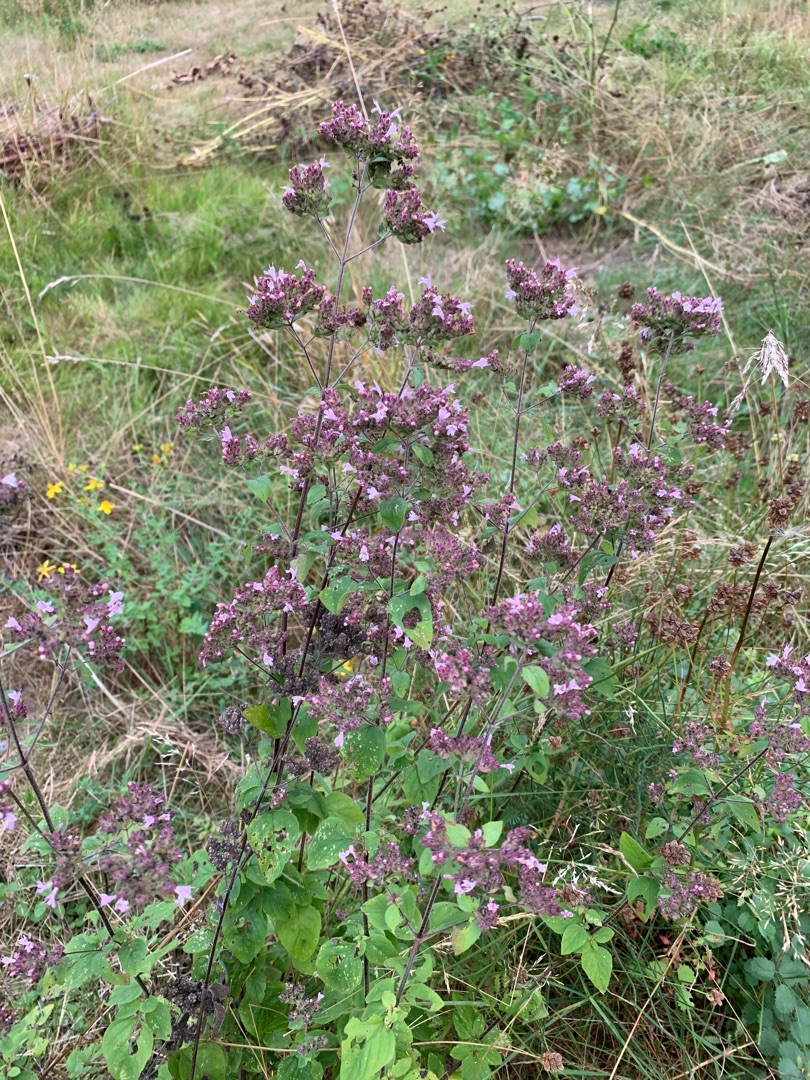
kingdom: Plantae
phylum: Tracheophyta
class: Magnoliopsida
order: Lamiales
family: Lamiaceae
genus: Origanum
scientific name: Origanum vulgare
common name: Merian
